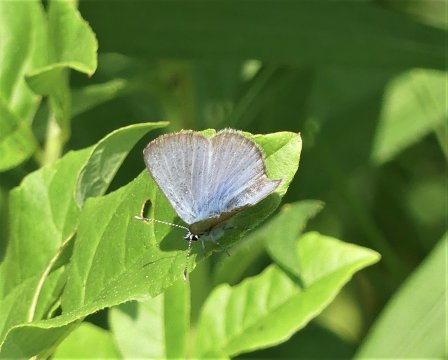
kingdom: Animalia
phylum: Arthropoda
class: Insecta
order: Lepidoptera
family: Lycaenidae
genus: Glaucopsyche
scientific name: Glaucopsyche lygdamus
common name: Silvery Blue
